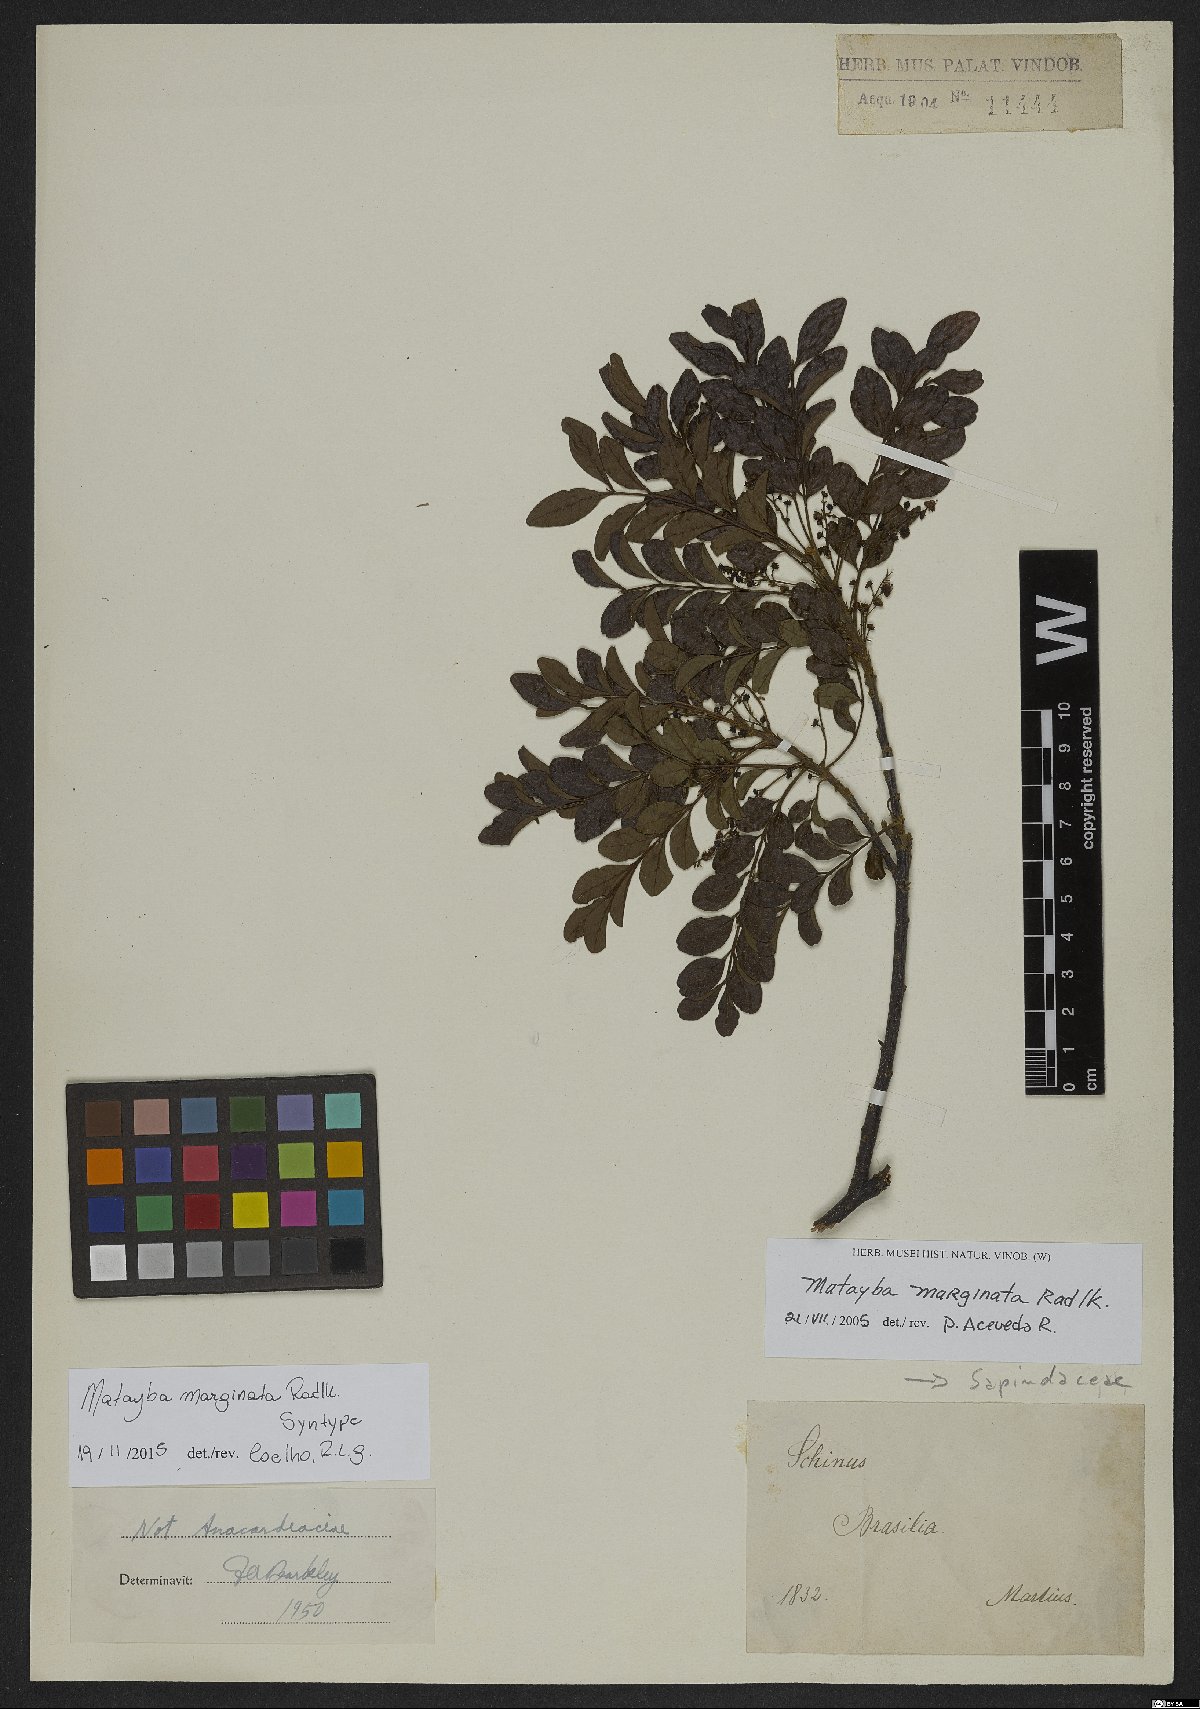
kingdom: Plantae
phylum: Tracheophyta
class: Magnoliopsida
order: Sapindales
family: Sapindaceae
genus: Matayba
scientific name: Matayba marginata
